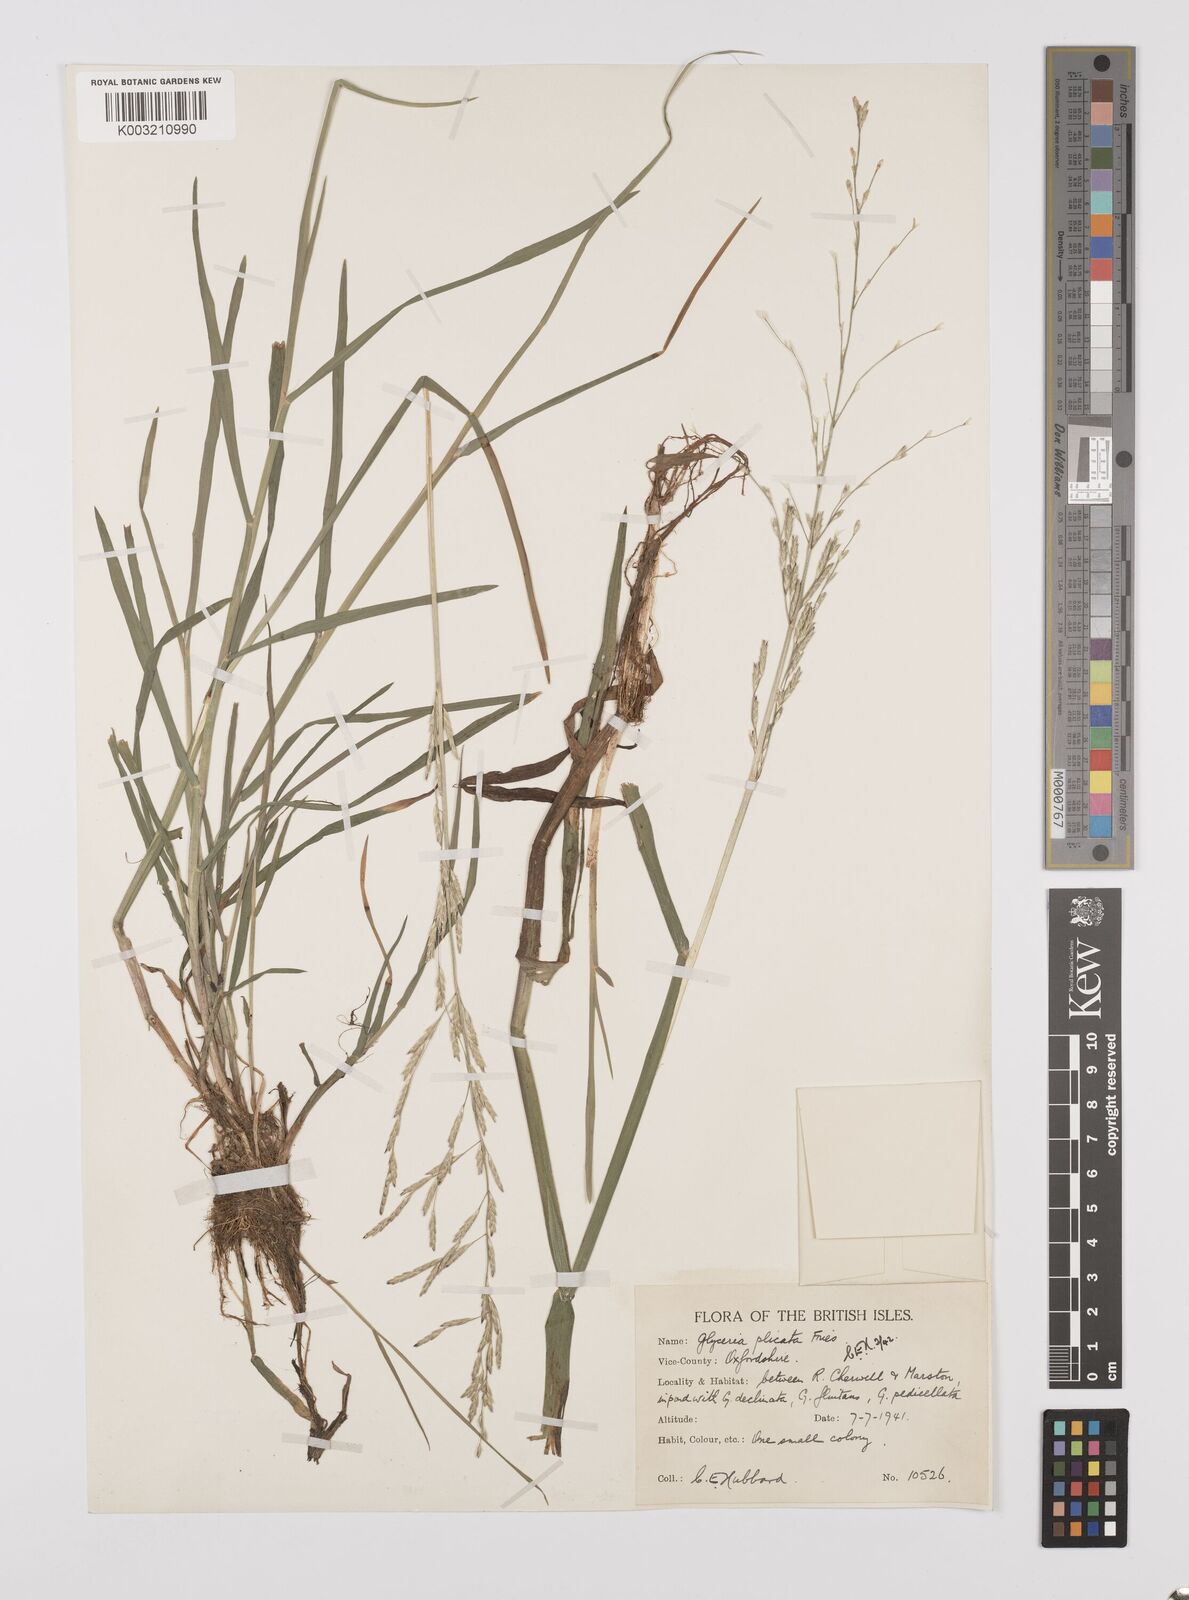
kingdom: Plantae
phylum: Tracheophyta
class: Liliopsida
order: Poales
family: Poaceae
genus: Glyceria
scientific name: Glyceria notata
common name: Plicate sweet-grass
